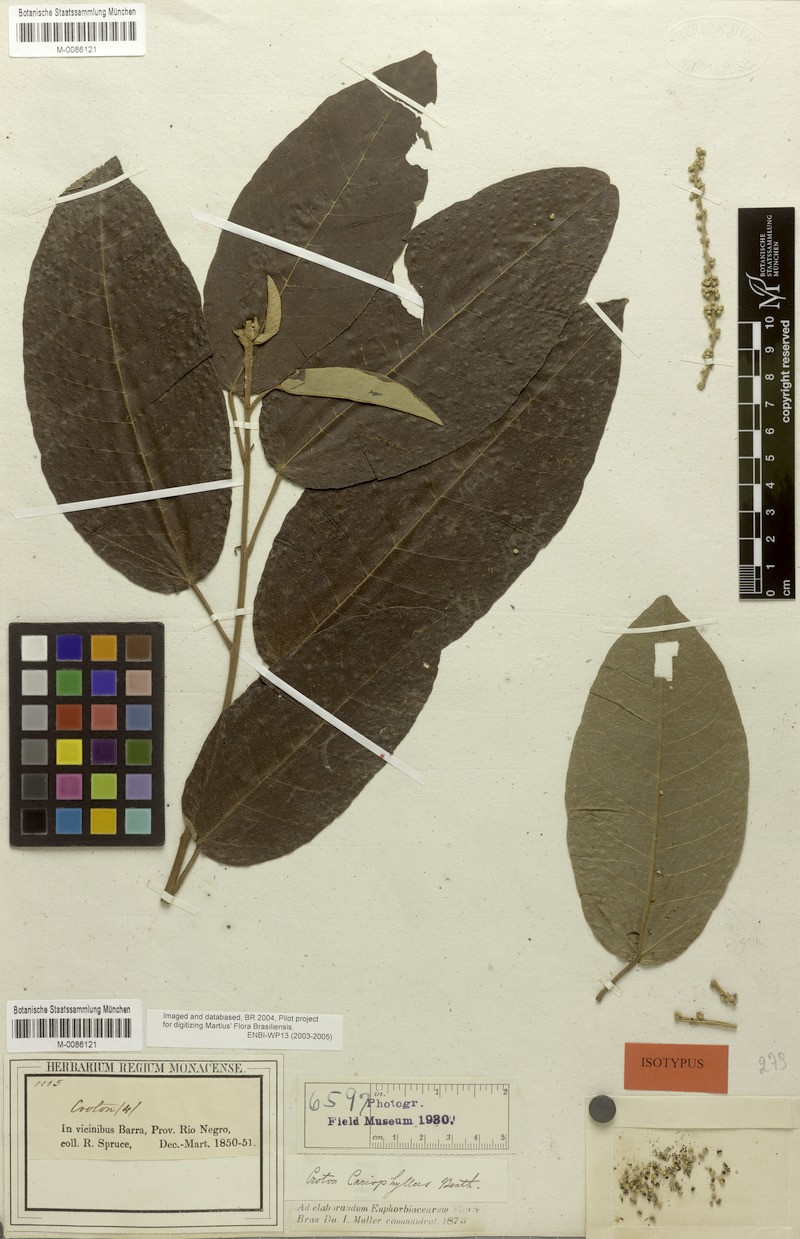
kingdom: Plantae
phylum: Tracheophyta
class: Magnoliopsida
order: Malpighiales
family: Euphorbiaceae
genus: Croton
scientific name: Croton matourensis
